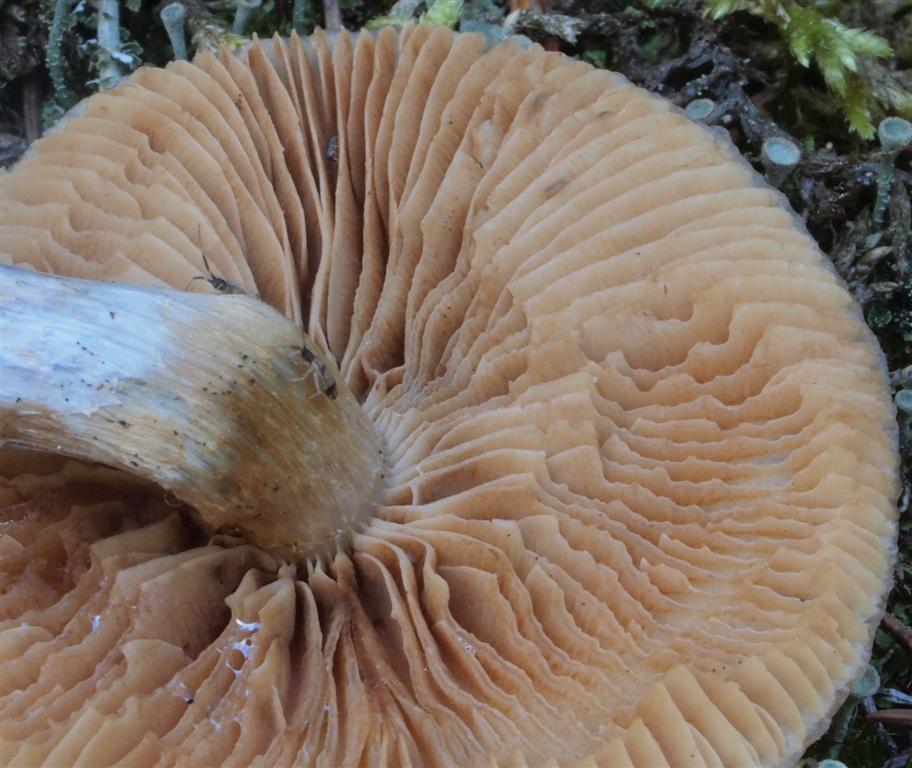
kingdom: Fungi
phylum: Basidiomycota
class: Agaricomycetes
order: Agaricales
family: Cortinariaceae
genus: Cortinarius
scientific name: Cortinarius collinitus
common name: spættet slørhat
